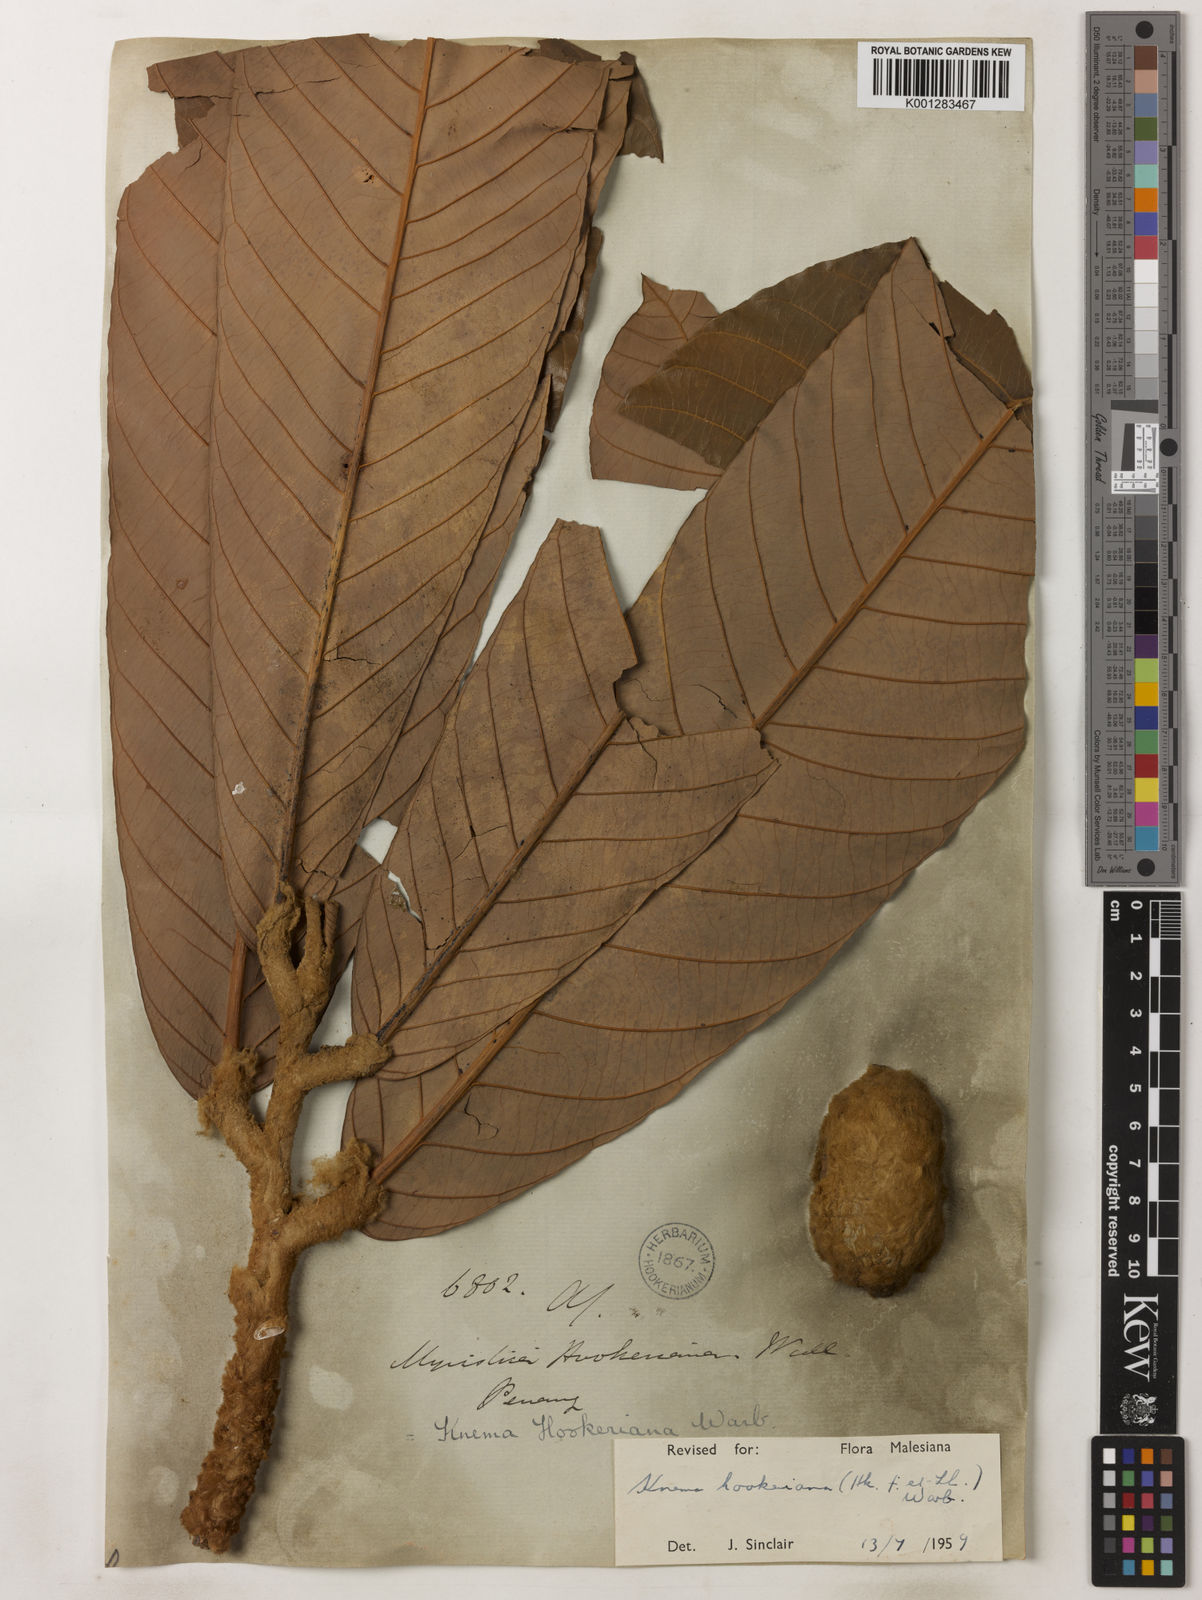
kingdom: Plantae
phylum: Tracheophyta
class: Magnoliopsida
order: Magnoliales
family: Myristicaceae
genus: Knema
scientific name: Knema hookeriana
